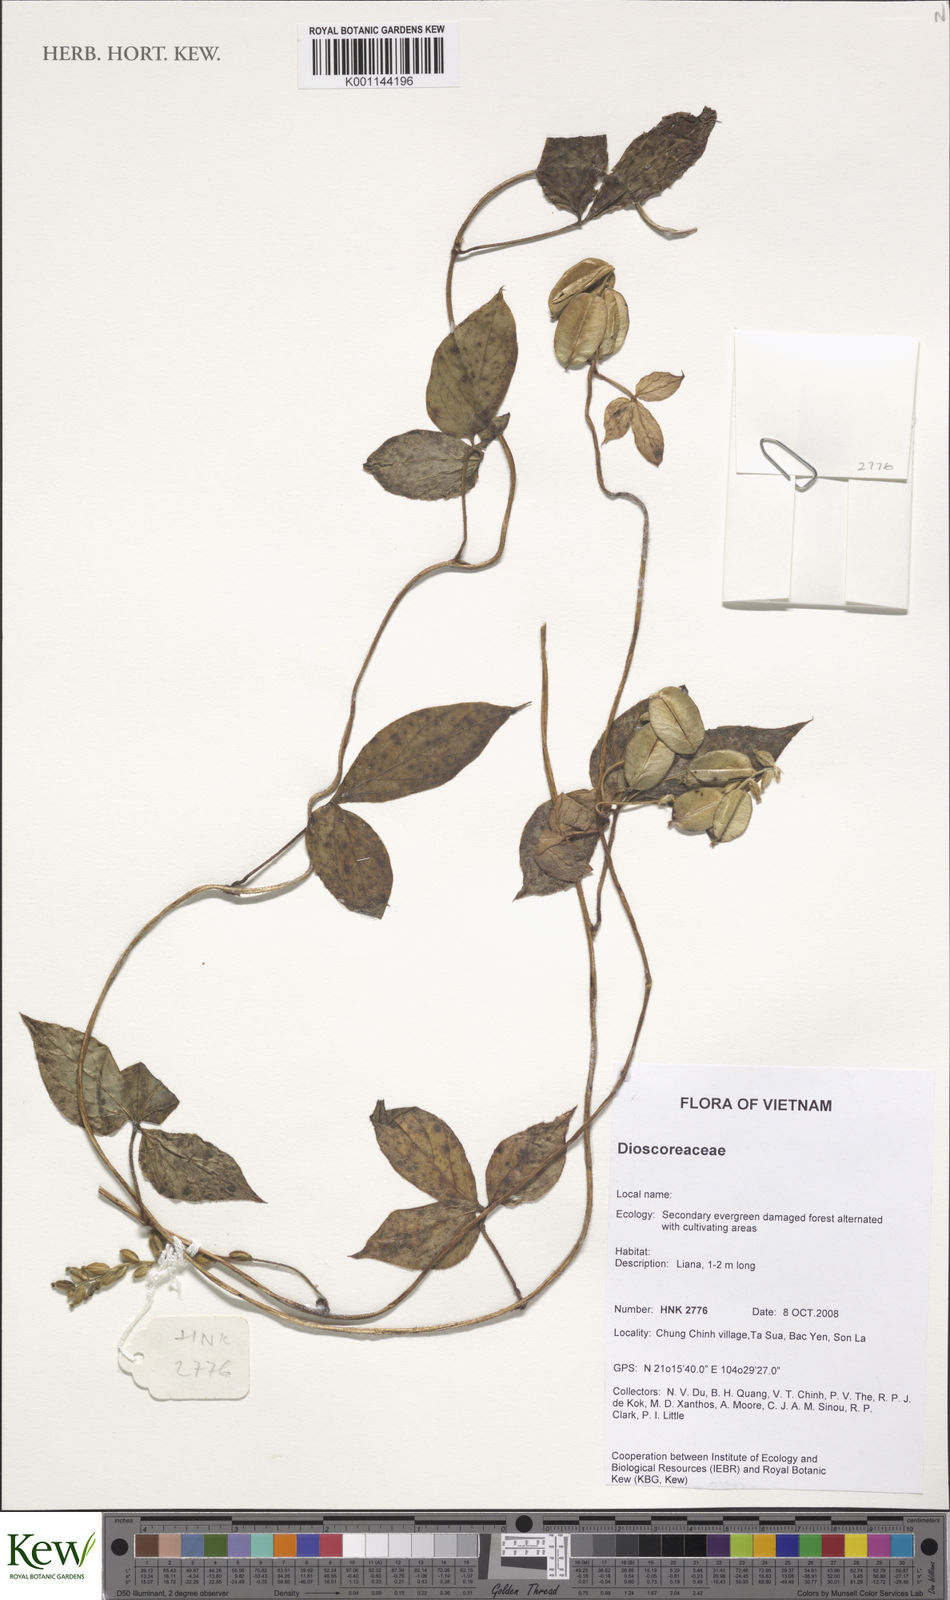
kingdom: Plantae
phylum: Tracheophyta
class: Liliopsida
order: Dioscoreales
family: Dioscoreaceae
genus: Dioscorea
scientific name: Dioscorea
